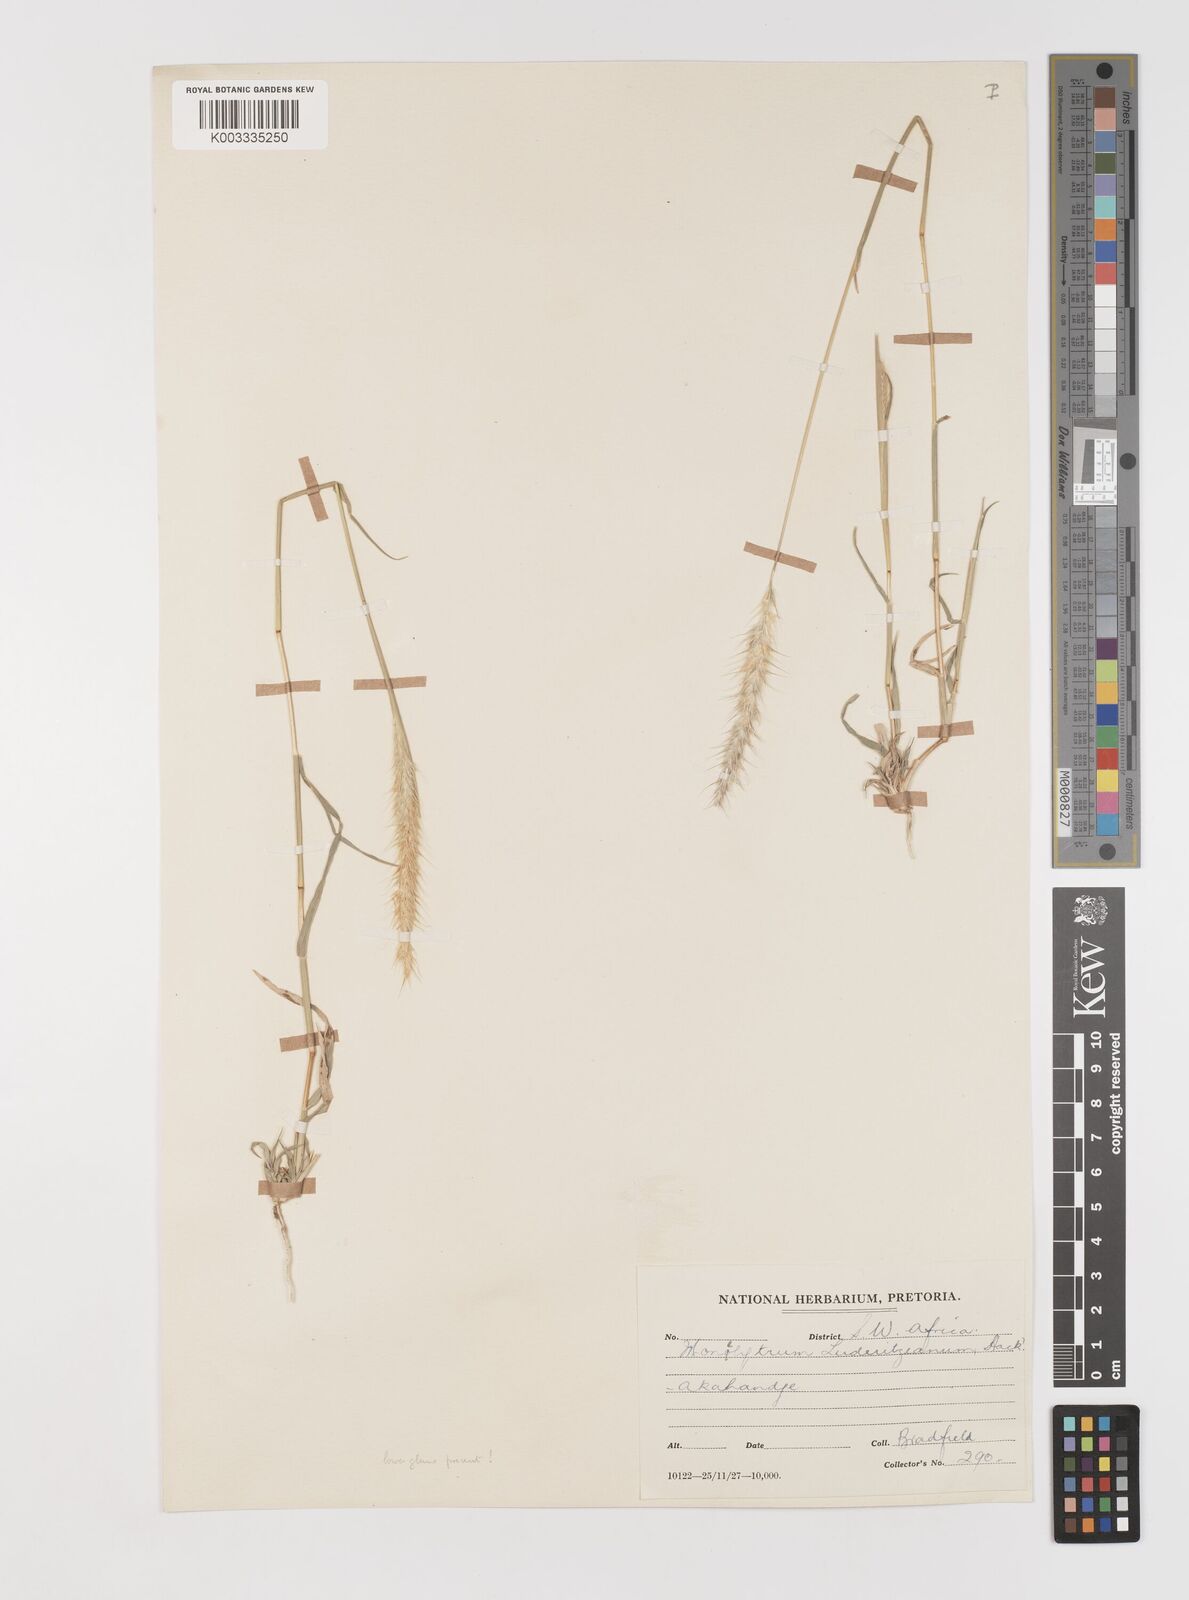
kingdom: Plantae
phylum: Tracheophyta
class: Liliopsida
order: Poales
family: Poaceae
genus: Monelytrum
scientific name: Monelytrum luederitzianum
